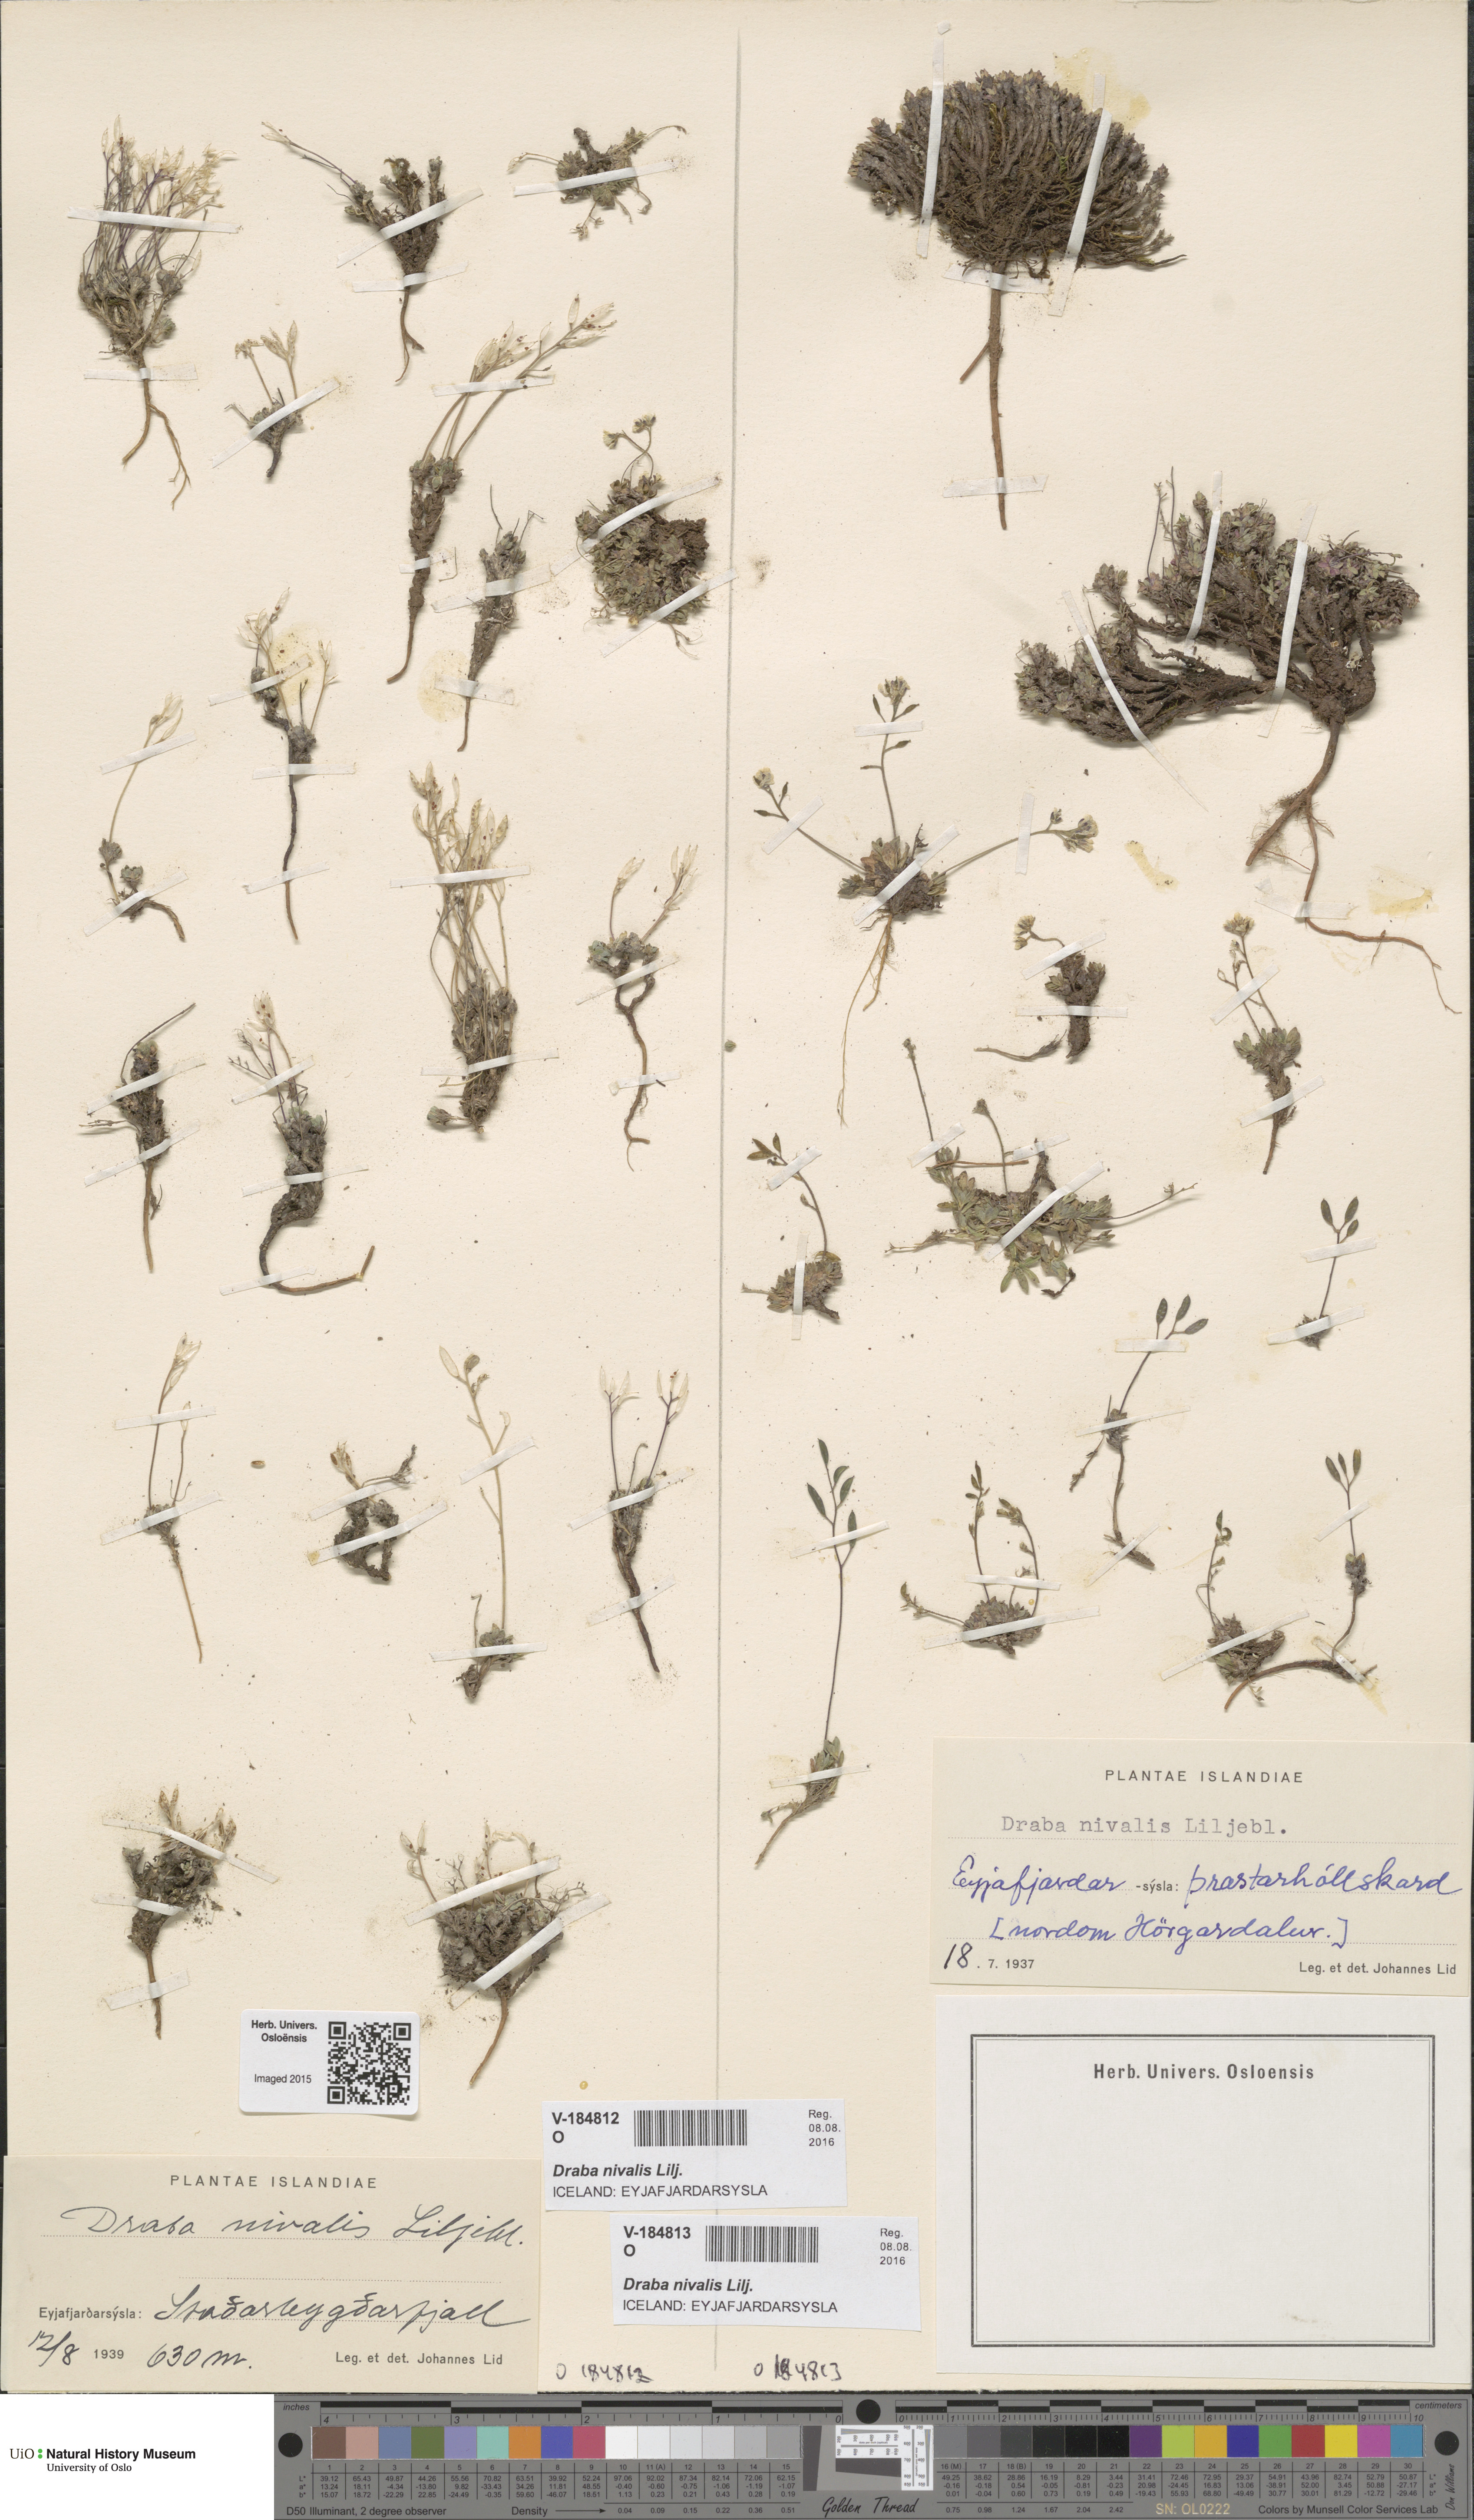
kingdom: Plantae
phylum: Tracheophyta
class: Magnoliopsida
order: Brassicales
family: Brassicaceae
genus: Draba
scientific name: Draba nivalis
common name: Snow draba
